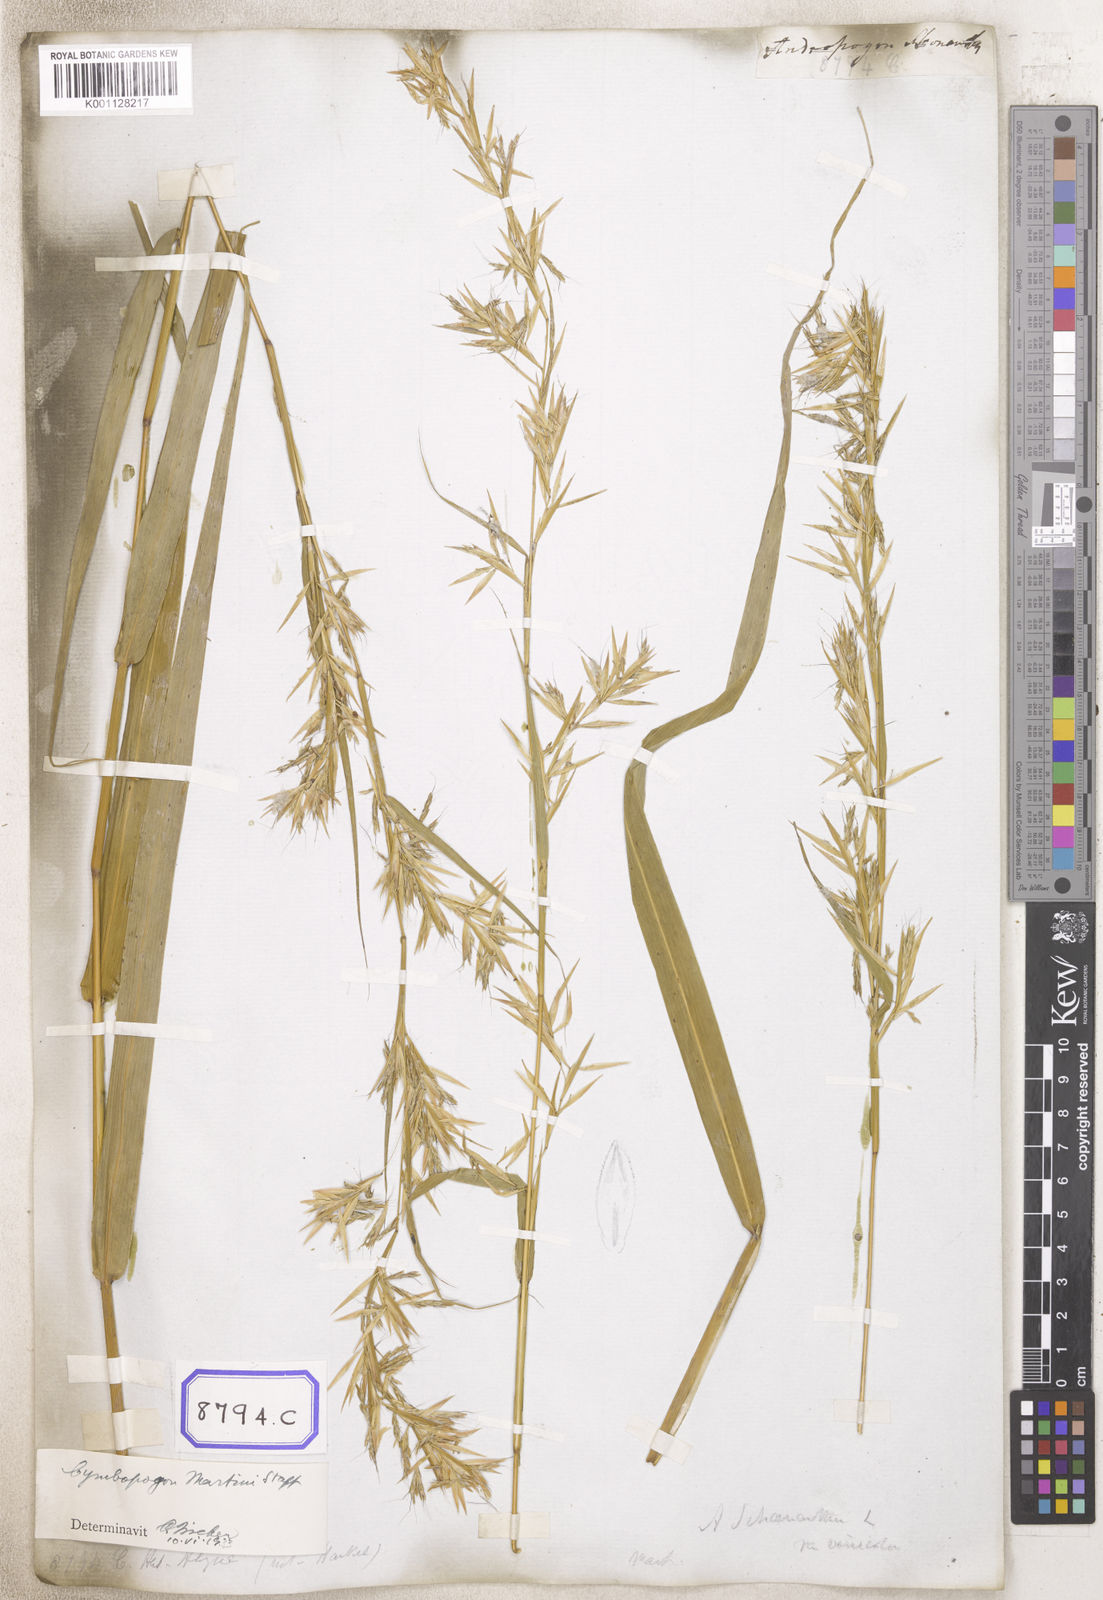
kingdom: Plantae
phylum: Tracheophyta
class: Liliopsida
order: Poales
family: Poaceae
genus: Cymbopogon
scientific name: Cymbopogon schoenanthus
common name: Geranium grass
